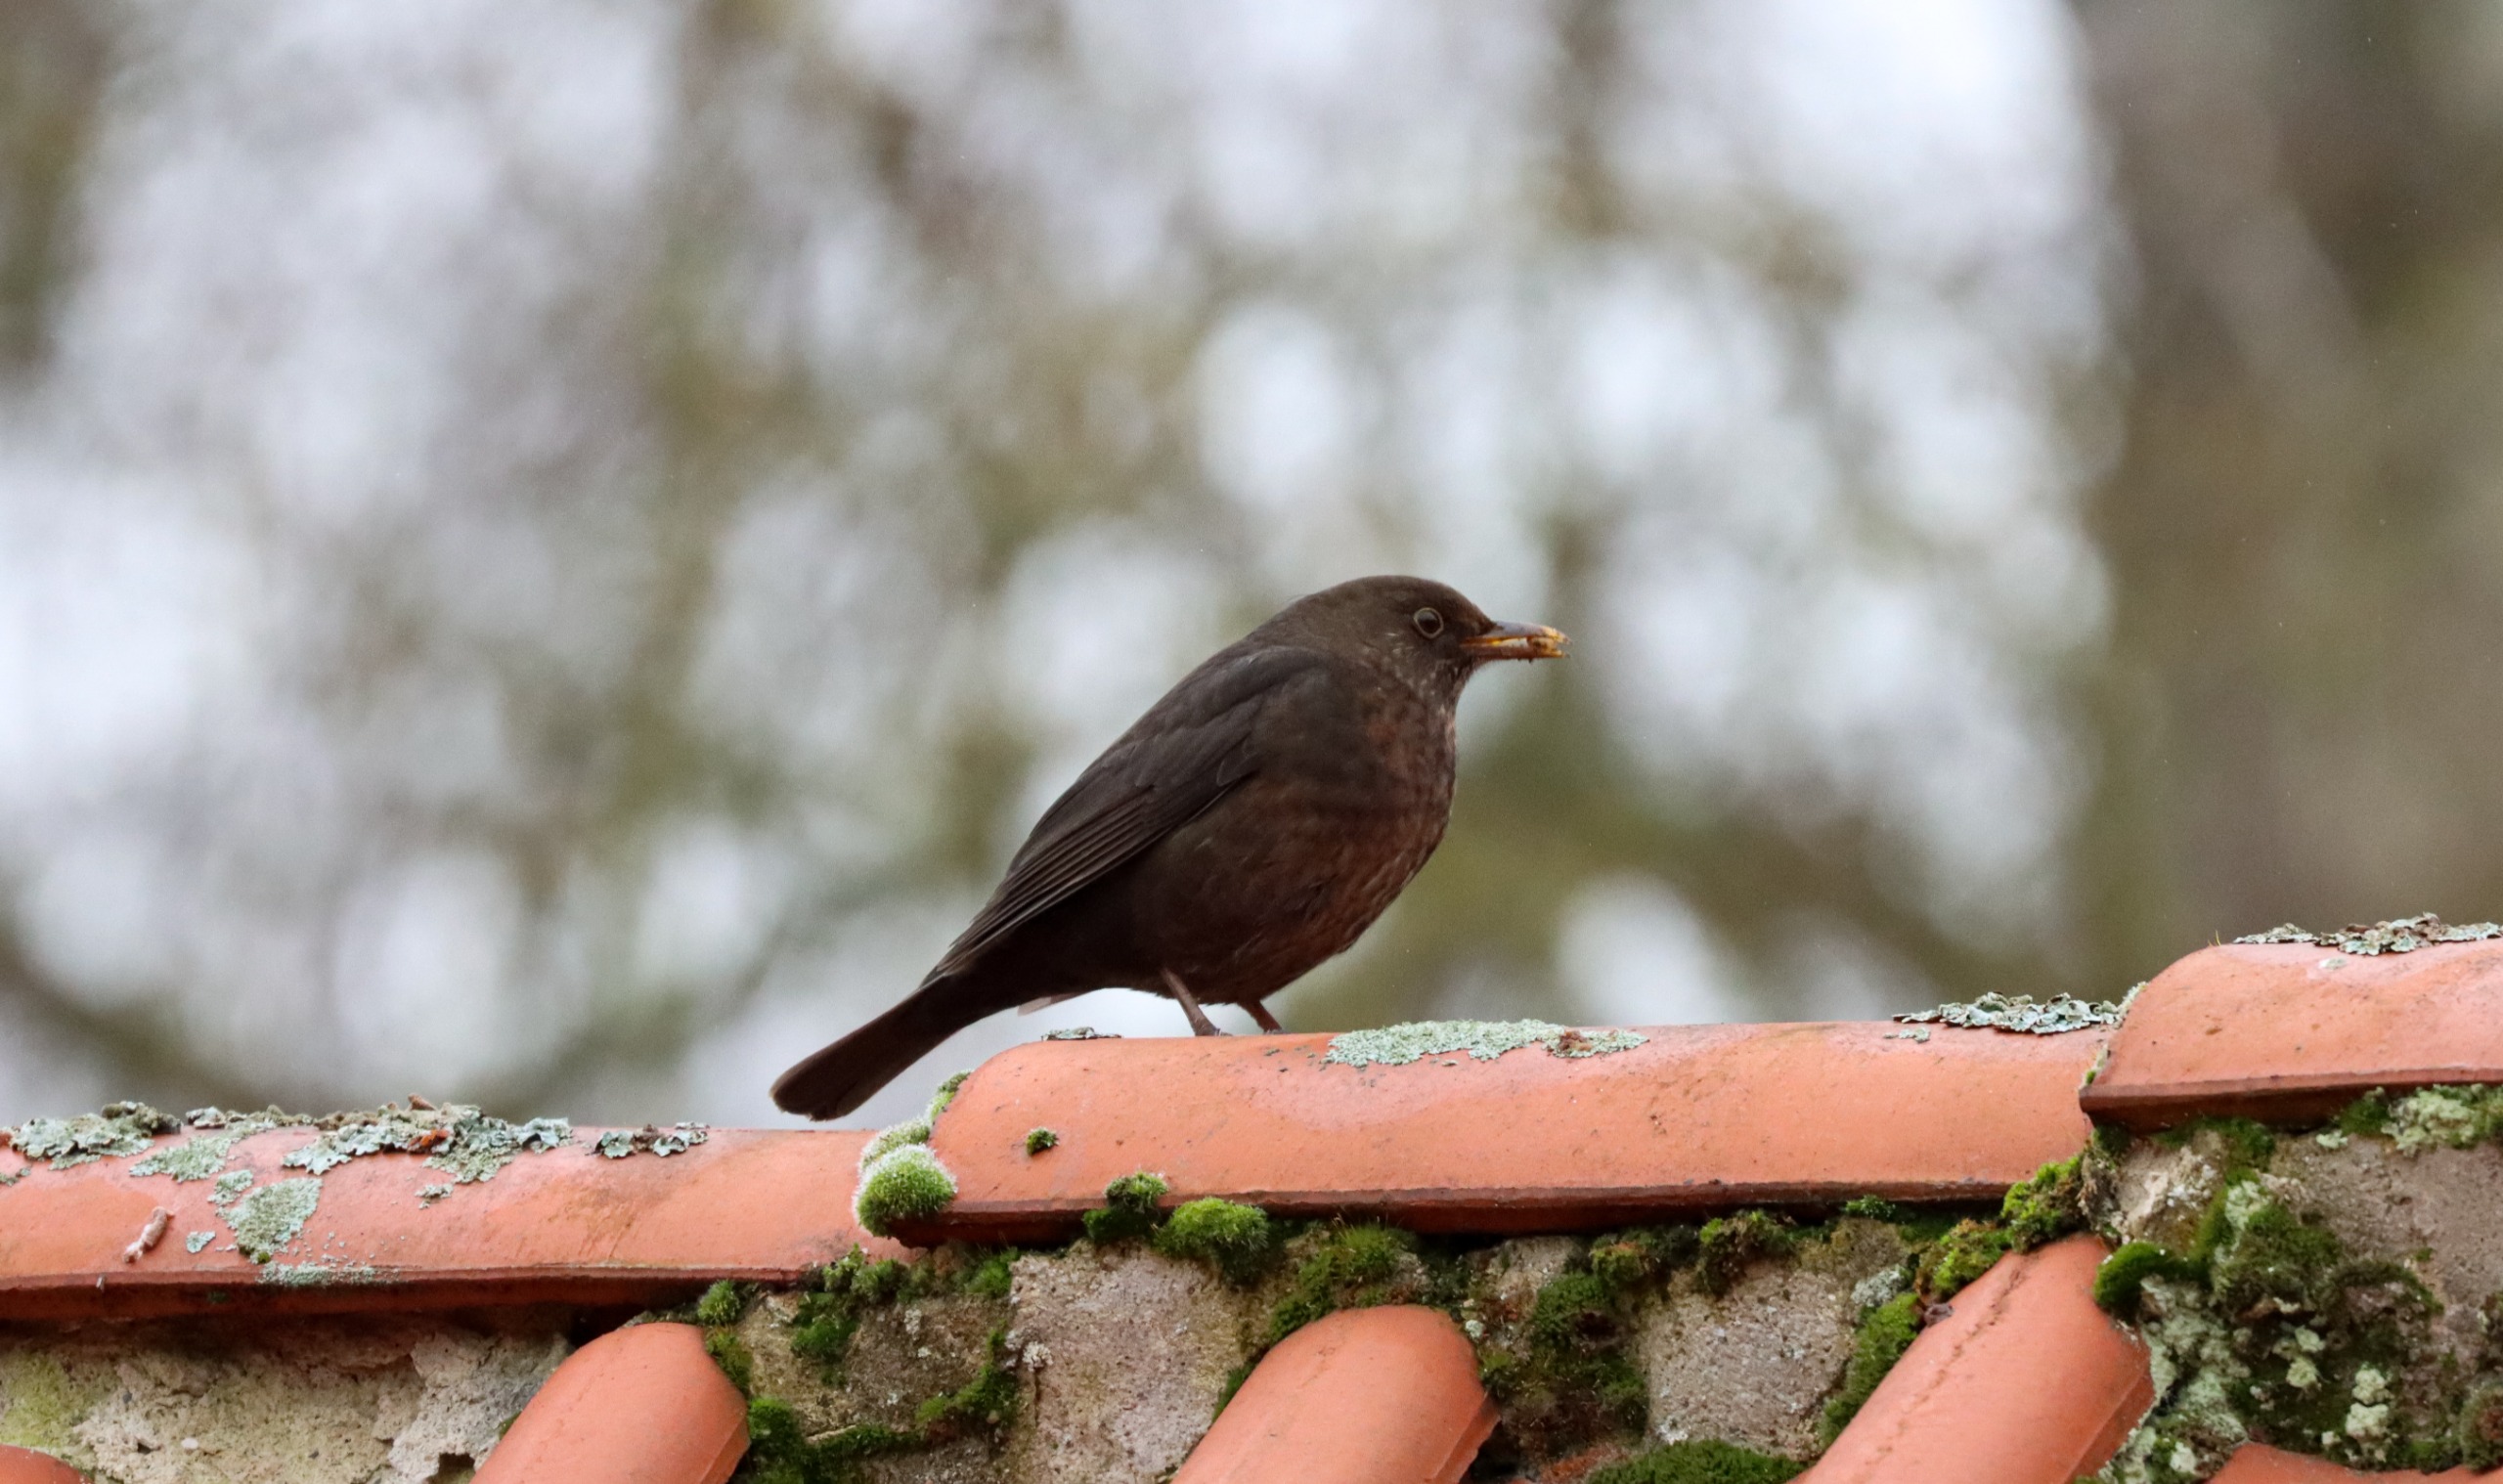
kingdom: Animalia
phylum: Chordata
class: Aves
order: Passeriformes
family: Turdidae
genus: Turdus
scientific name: Turdus merula
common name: Solsort
